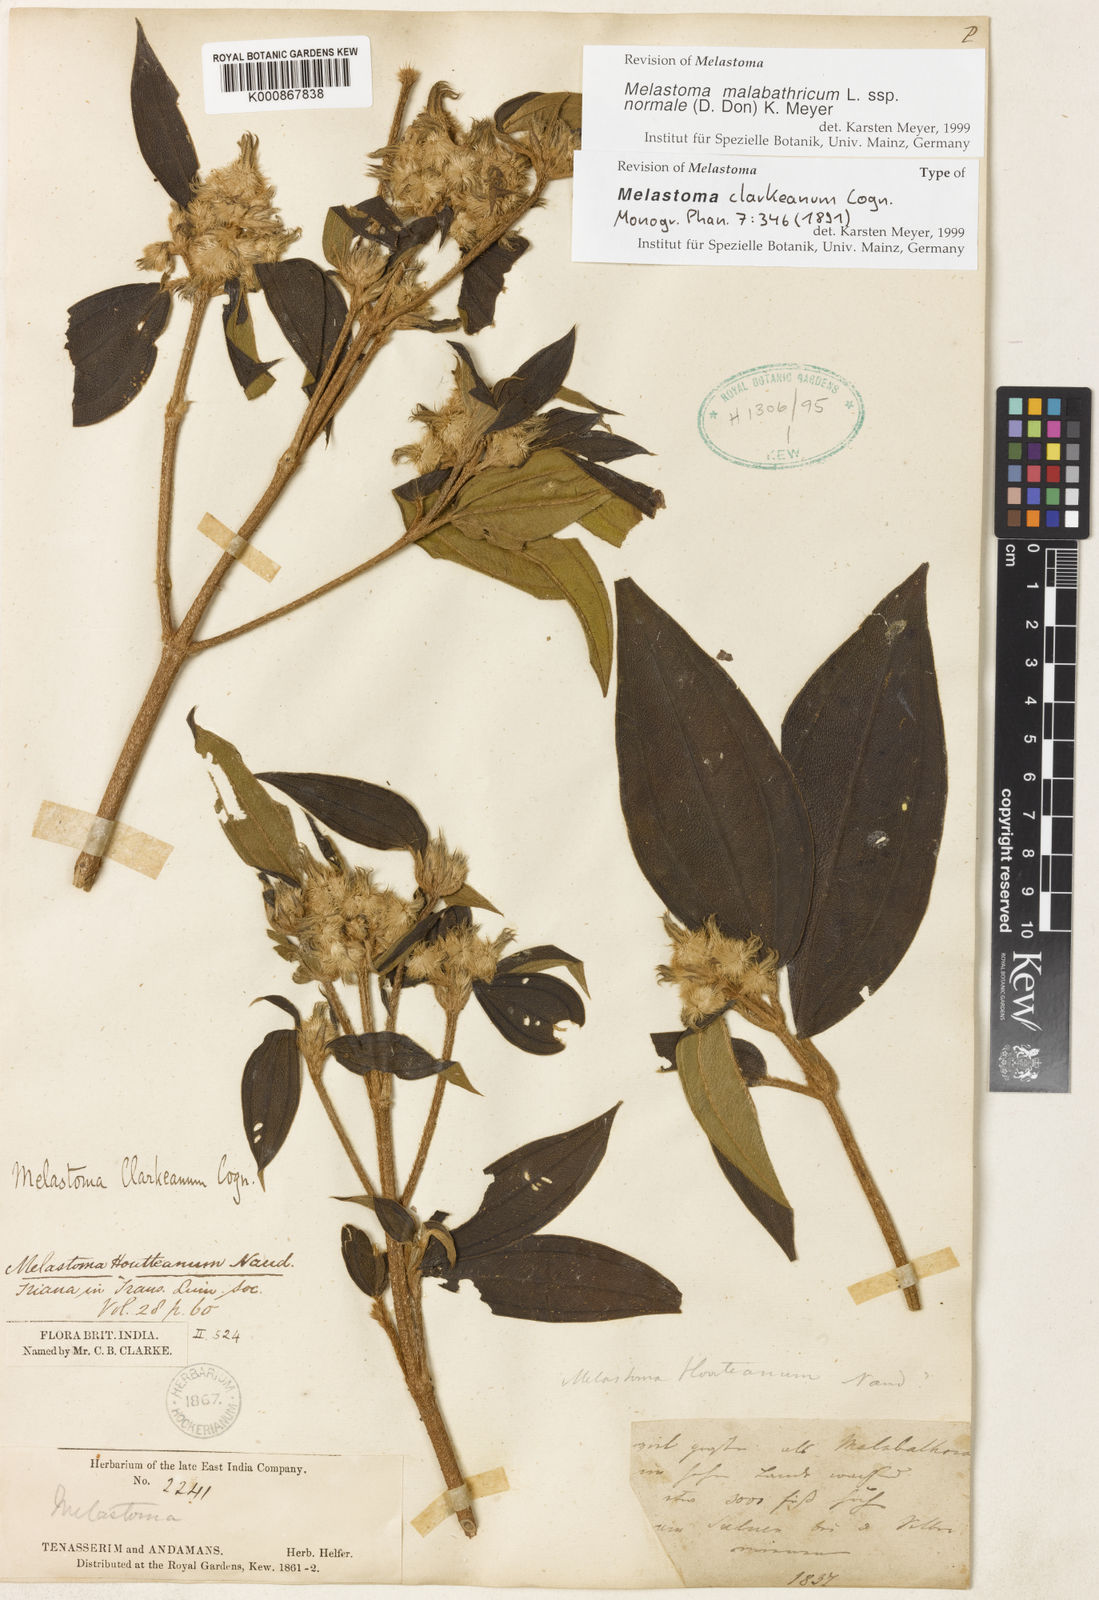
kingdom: Plantae
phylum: Tracheophyta
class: Magnoliopsida
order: Myrtales
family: Melastomataceae
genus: Melastoma
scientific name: Melastoma malabathricum
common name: Indian-rhododendron
